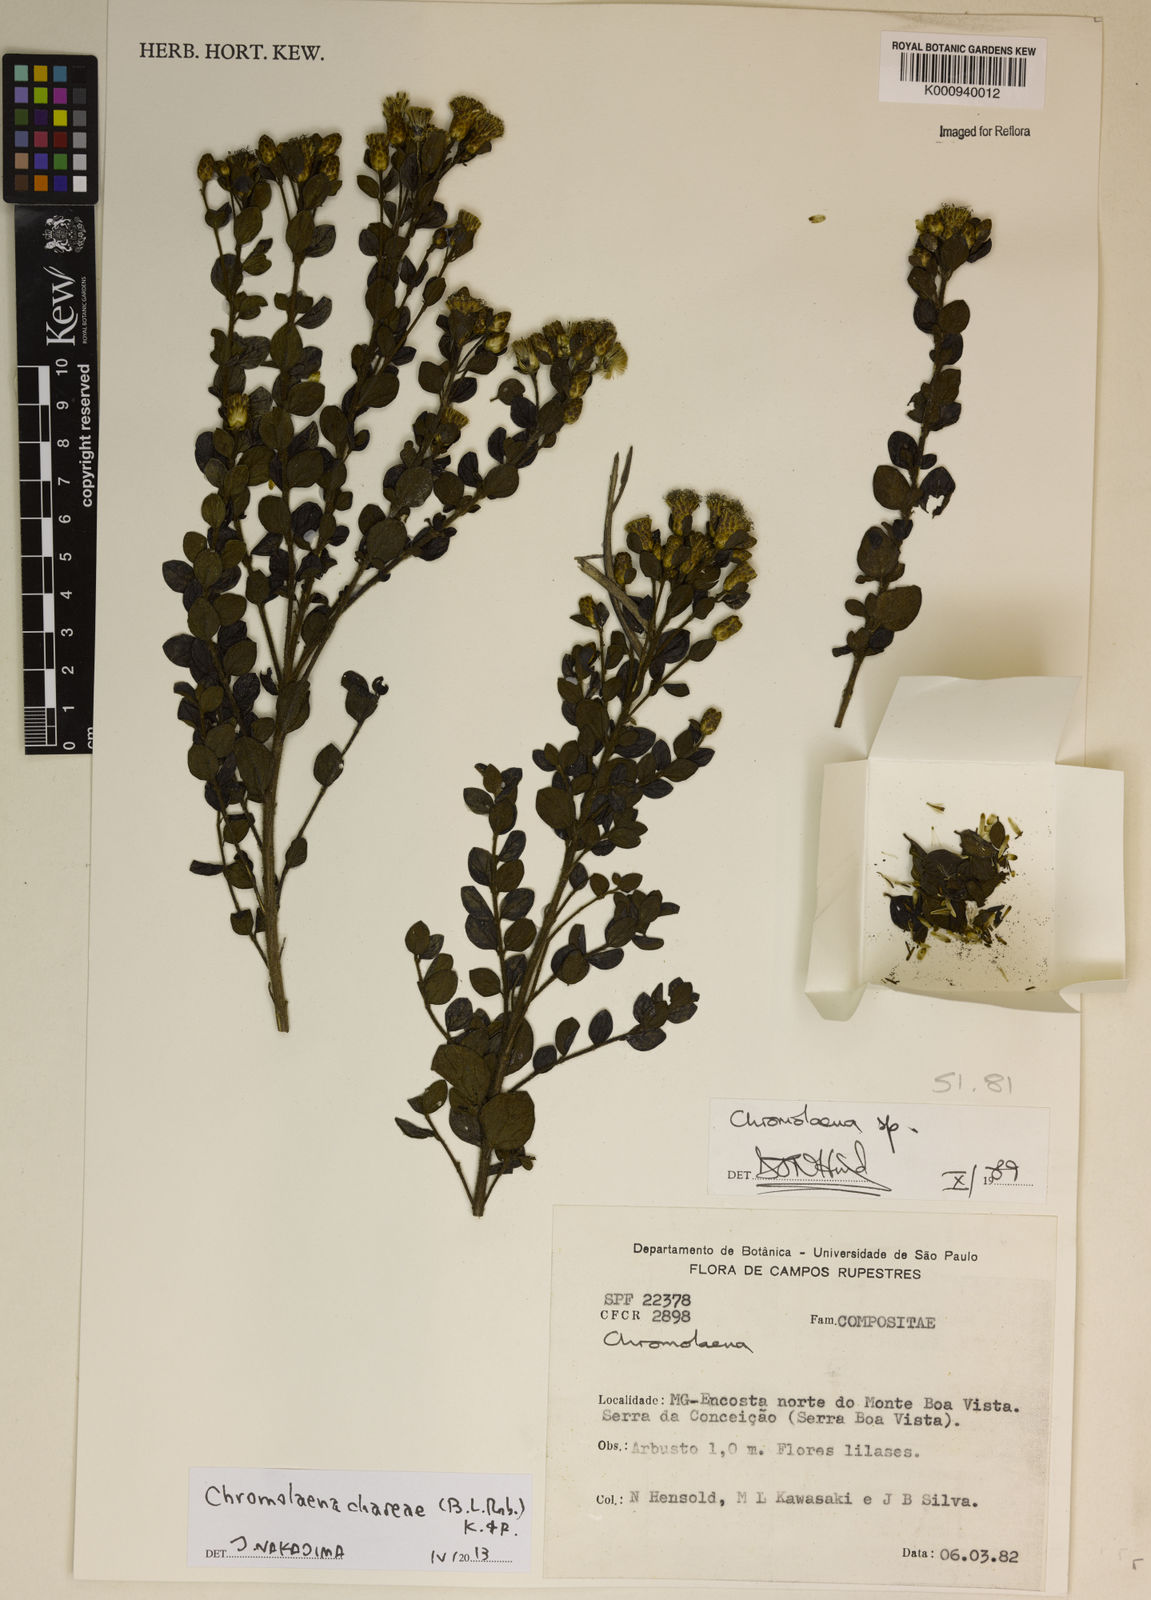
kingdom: Plantae
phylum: Tracheophyta
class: Magnoliopsida
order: Asterales
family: Asteraceae
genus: Chromolaena
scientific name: Chromolaena chaseae
